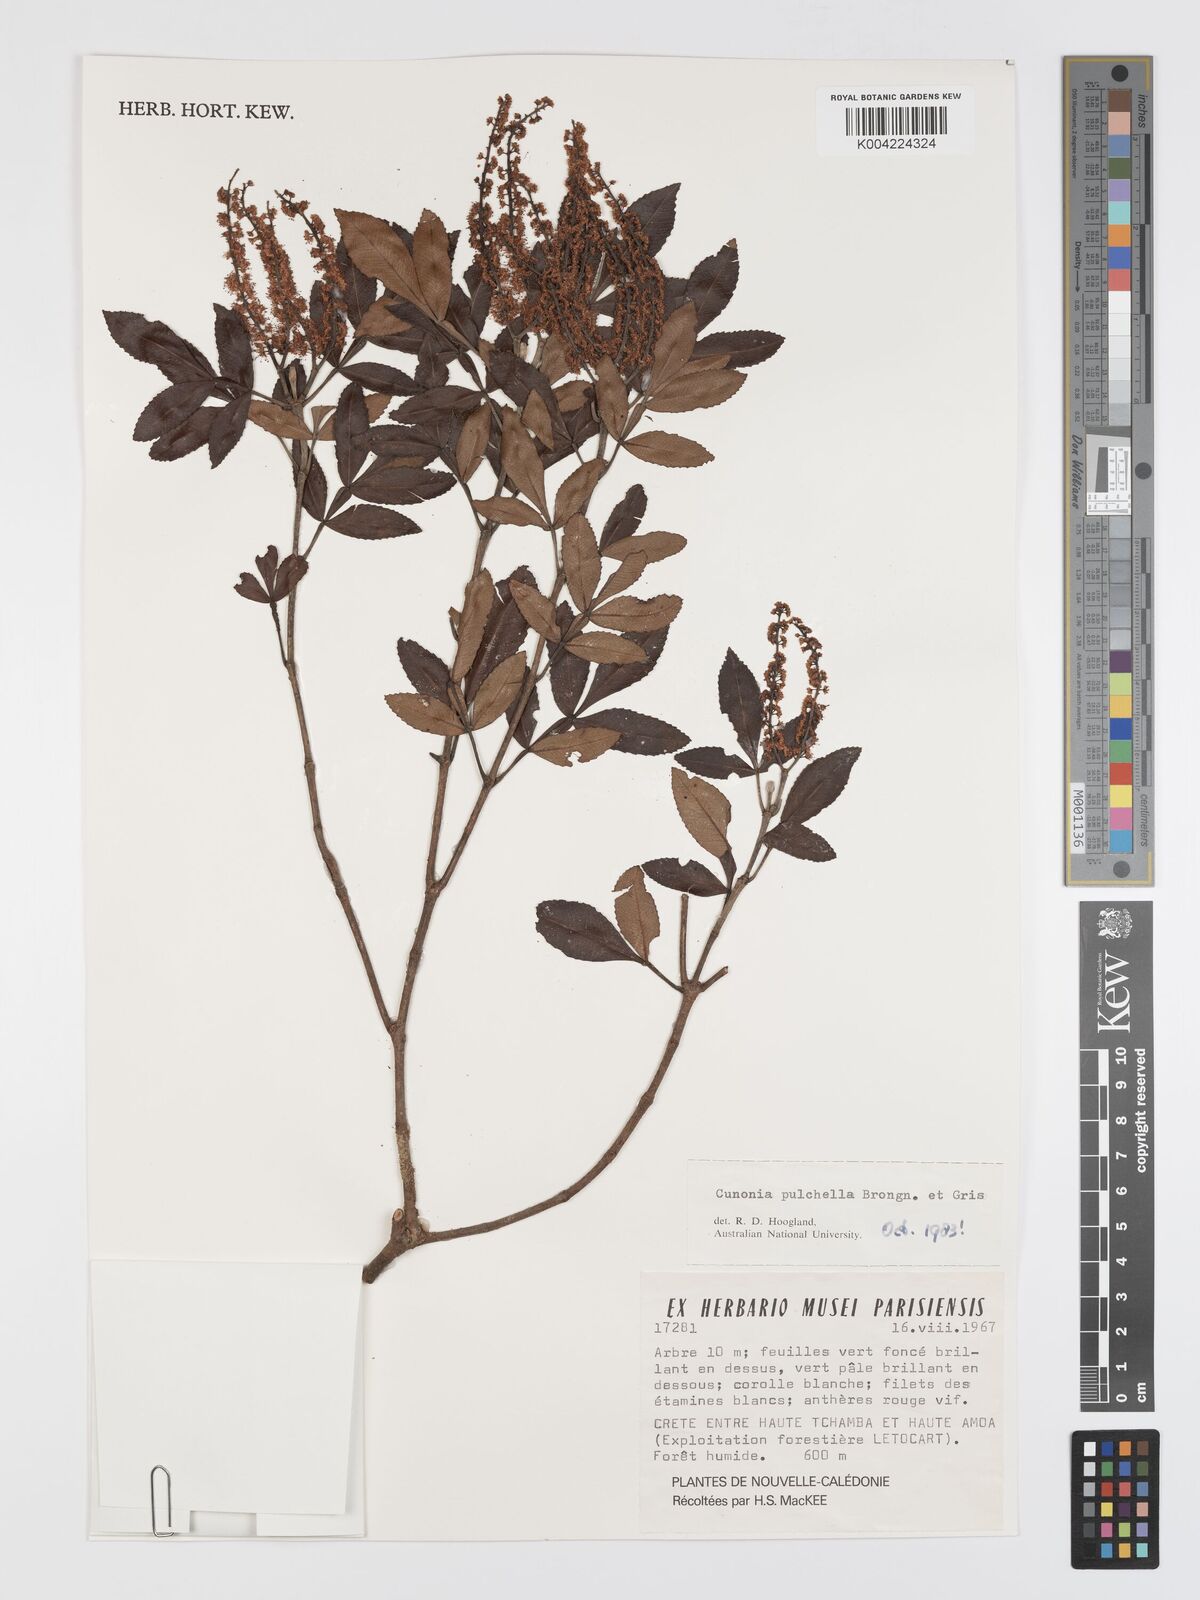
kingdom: Plantae
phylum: Tracheophyta
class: Magnoliopsida
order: Oxalidales
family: Cunoniaceae
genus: Cunonia
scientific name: Cunonia pulchella
